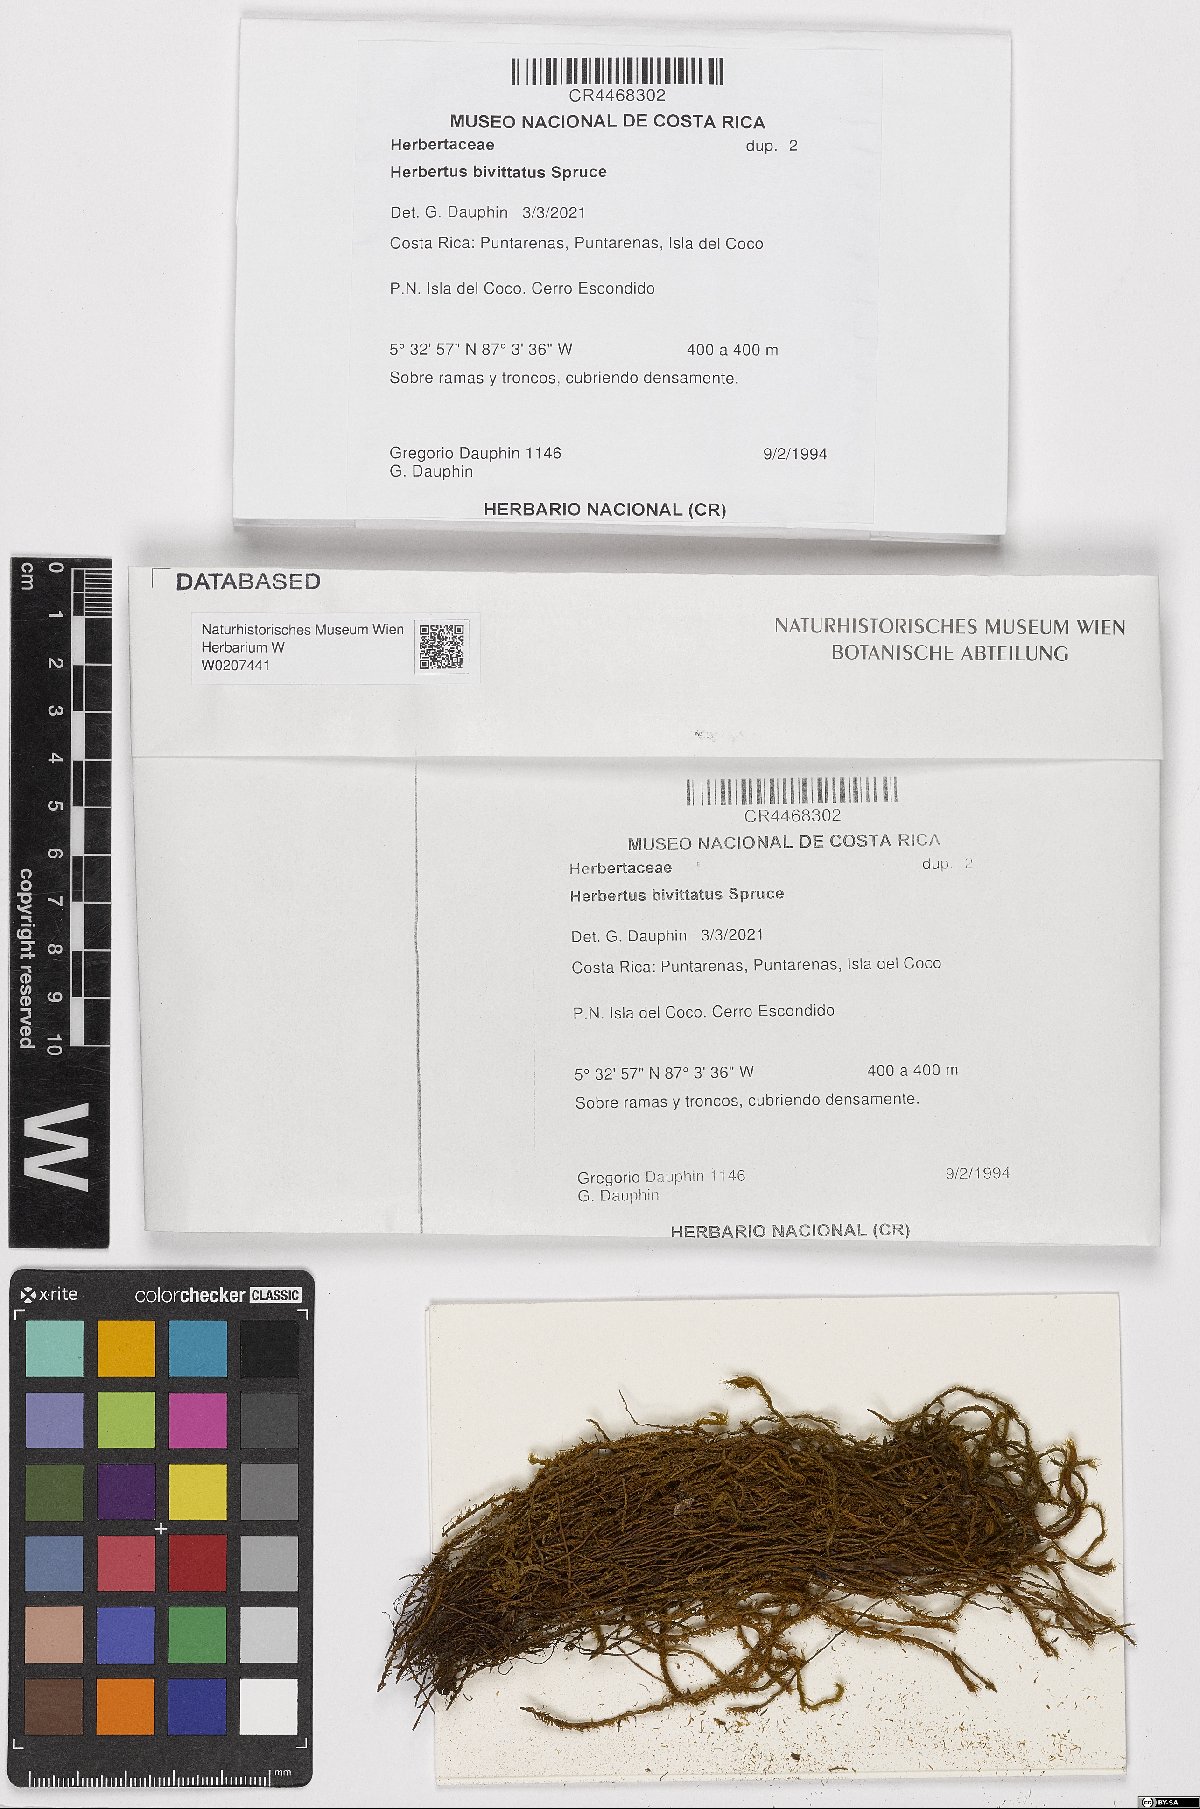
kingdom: Plantae
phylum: Marchantiophyta
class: Jungermanniopsida
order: Jungermanniales
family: Herbertaceae
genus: Herbertus
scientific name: Herbertus bivittatus
